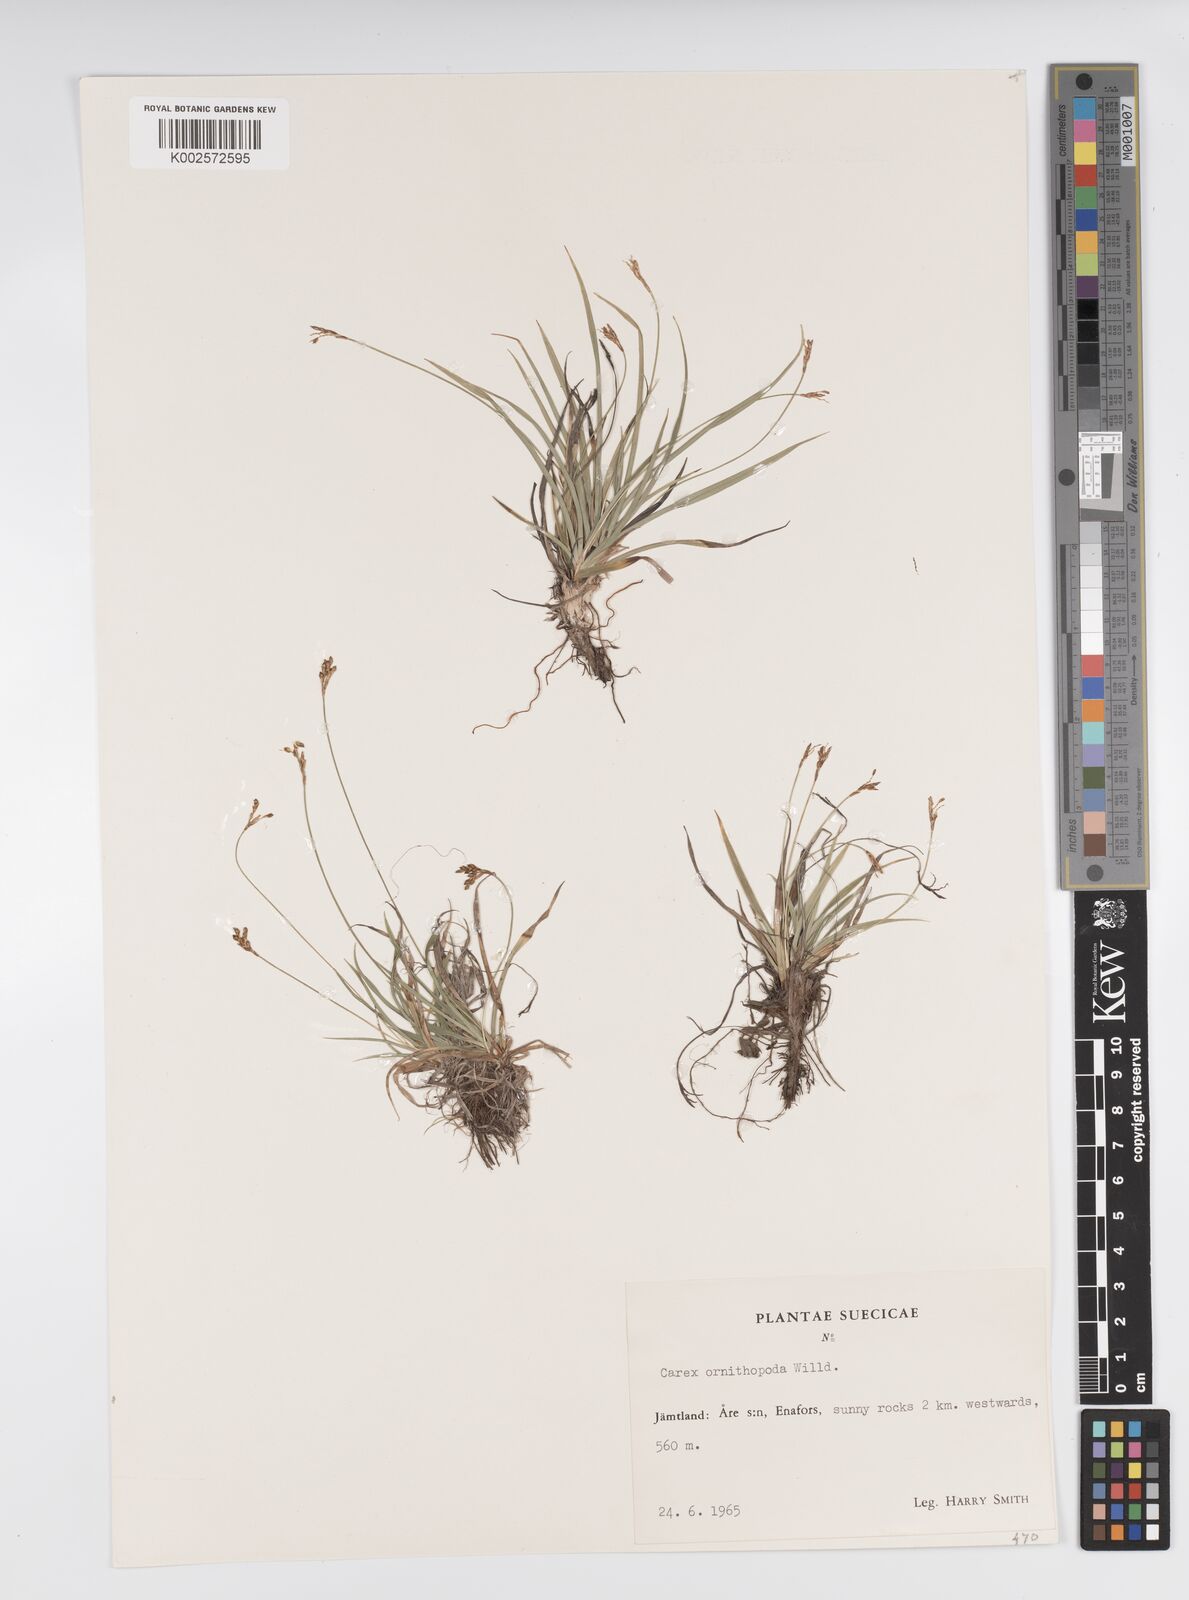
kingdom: Plantae
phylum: Tracheophyta
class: Liliopsida
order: Poales
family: Cyperaceae
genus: Carex
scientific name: Carex ornithopoda
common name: Bird's-foot sedge
